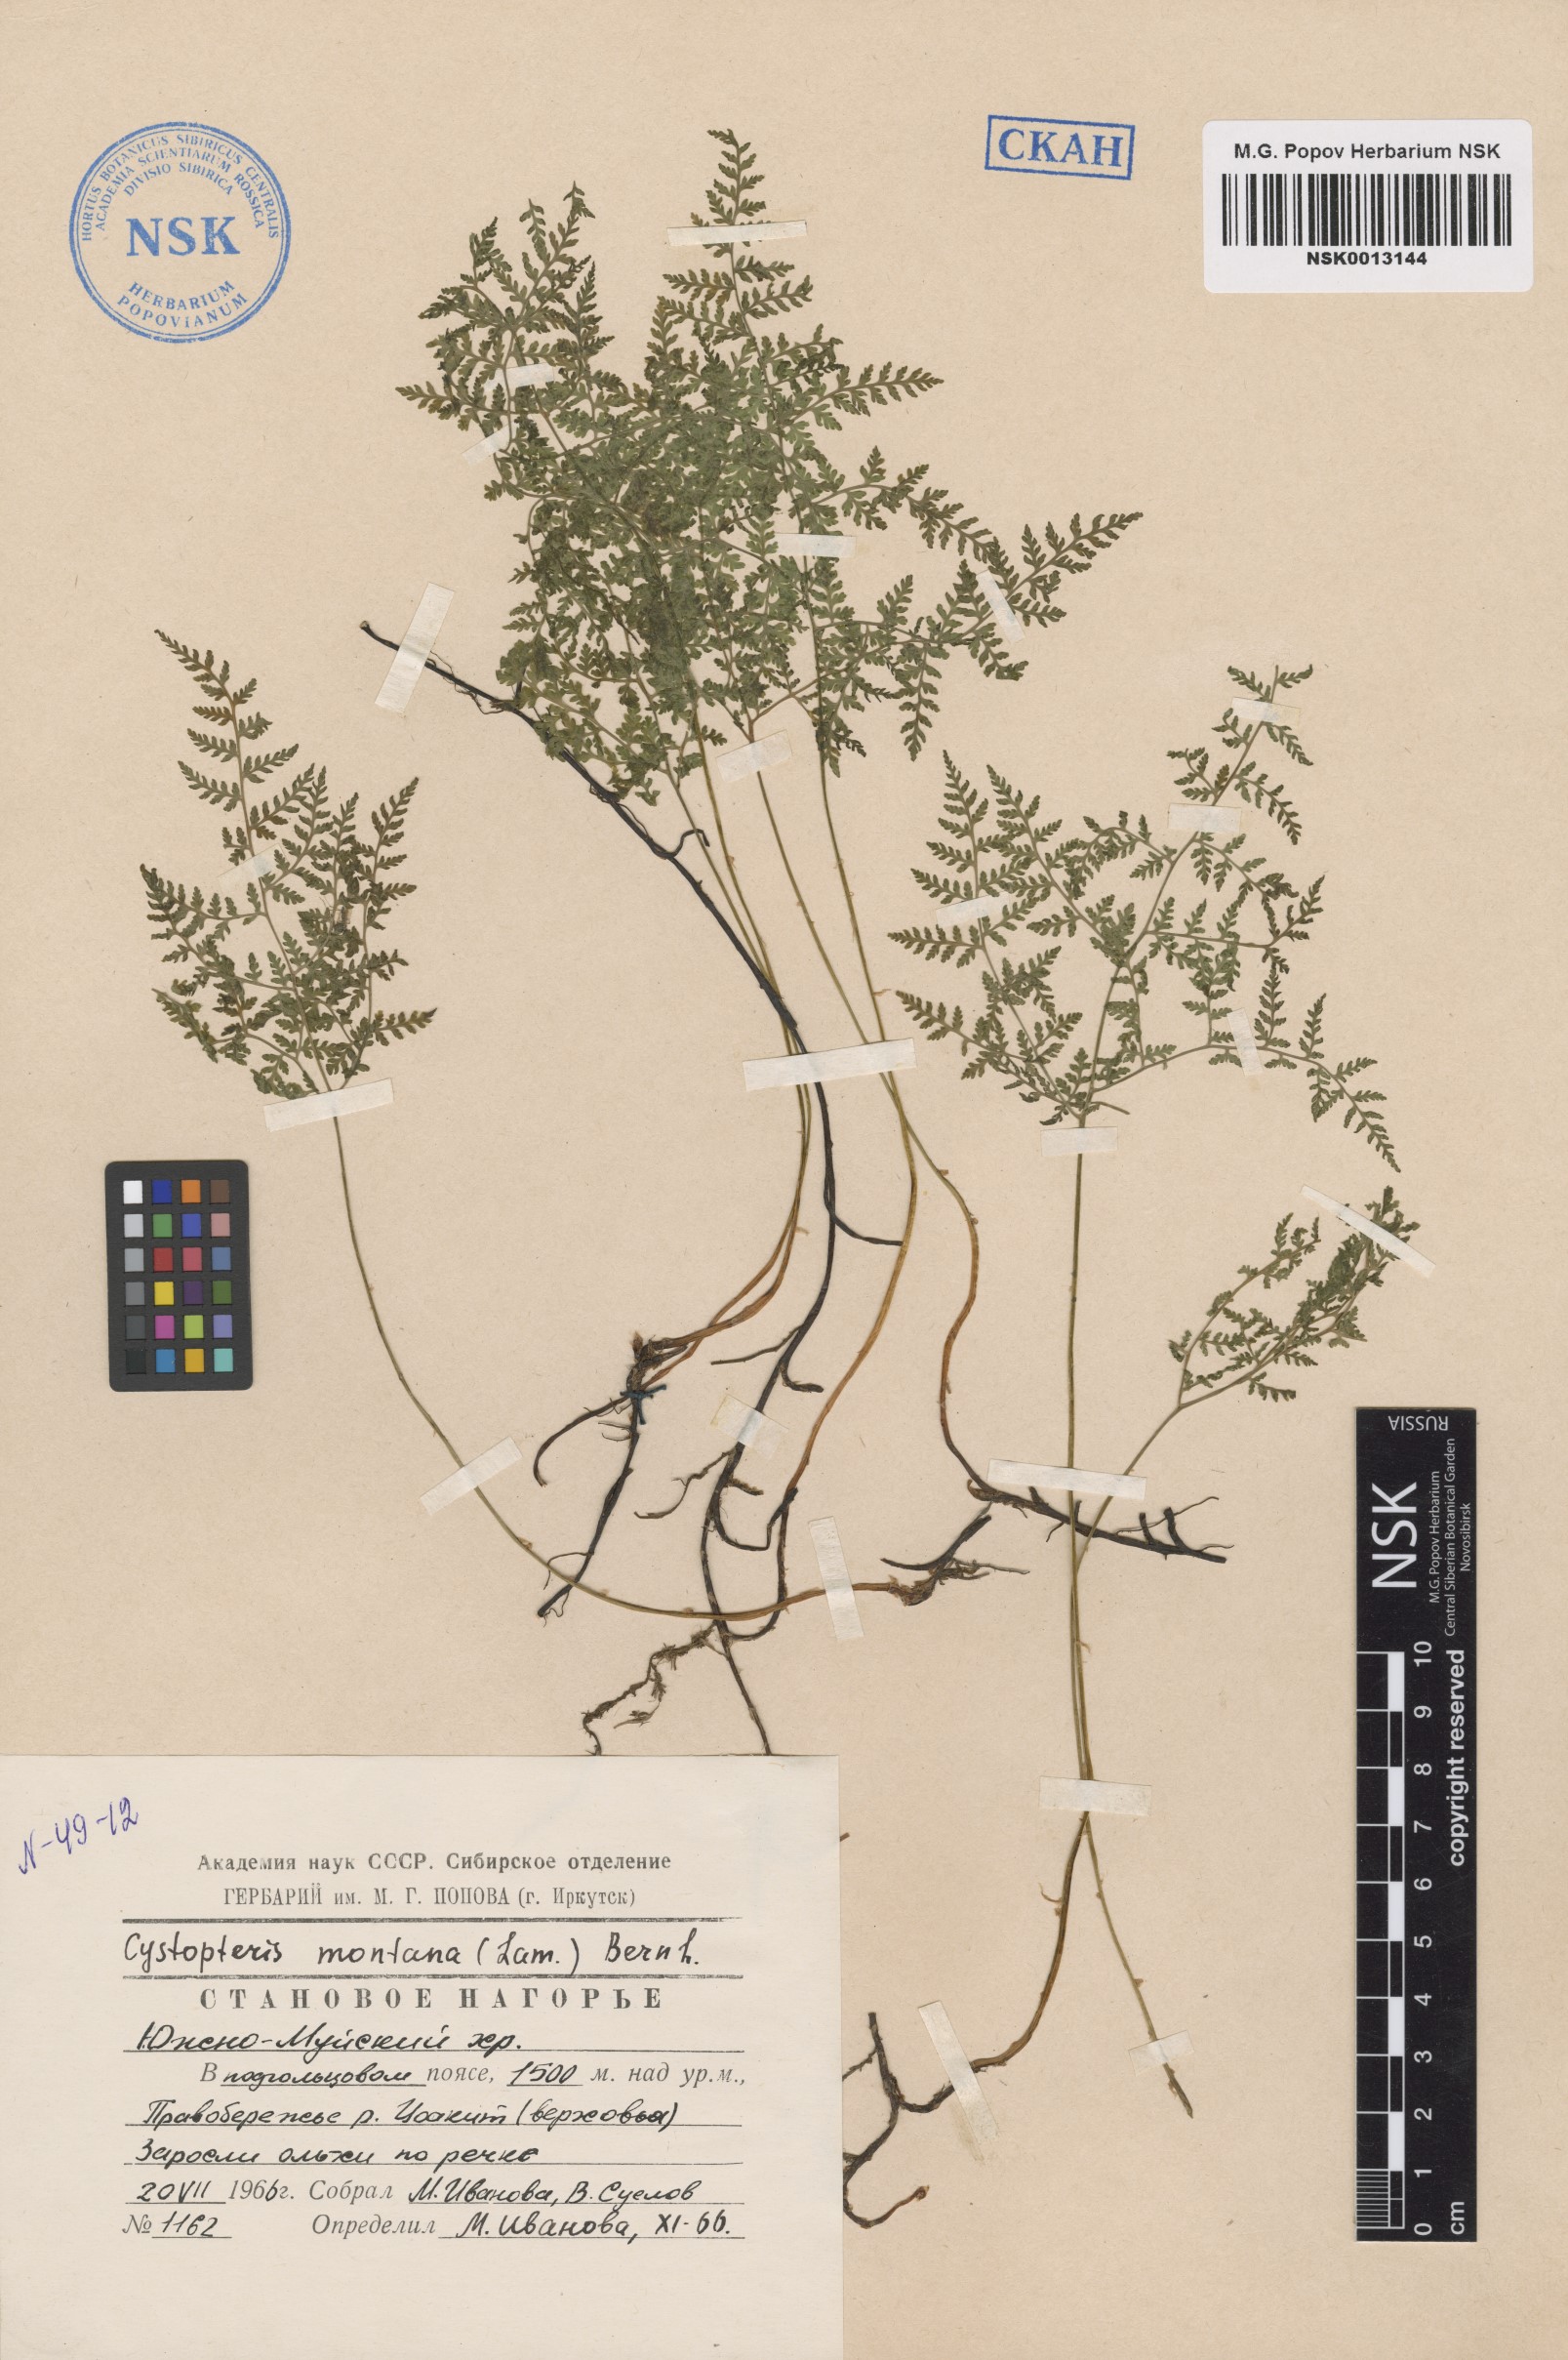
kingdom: Plantae
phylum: Tracheophyta
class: Polypodiopsida
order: Polypodiales
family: Cystopteridaceae
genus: Cystopteris
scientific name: Cystopteris montana
